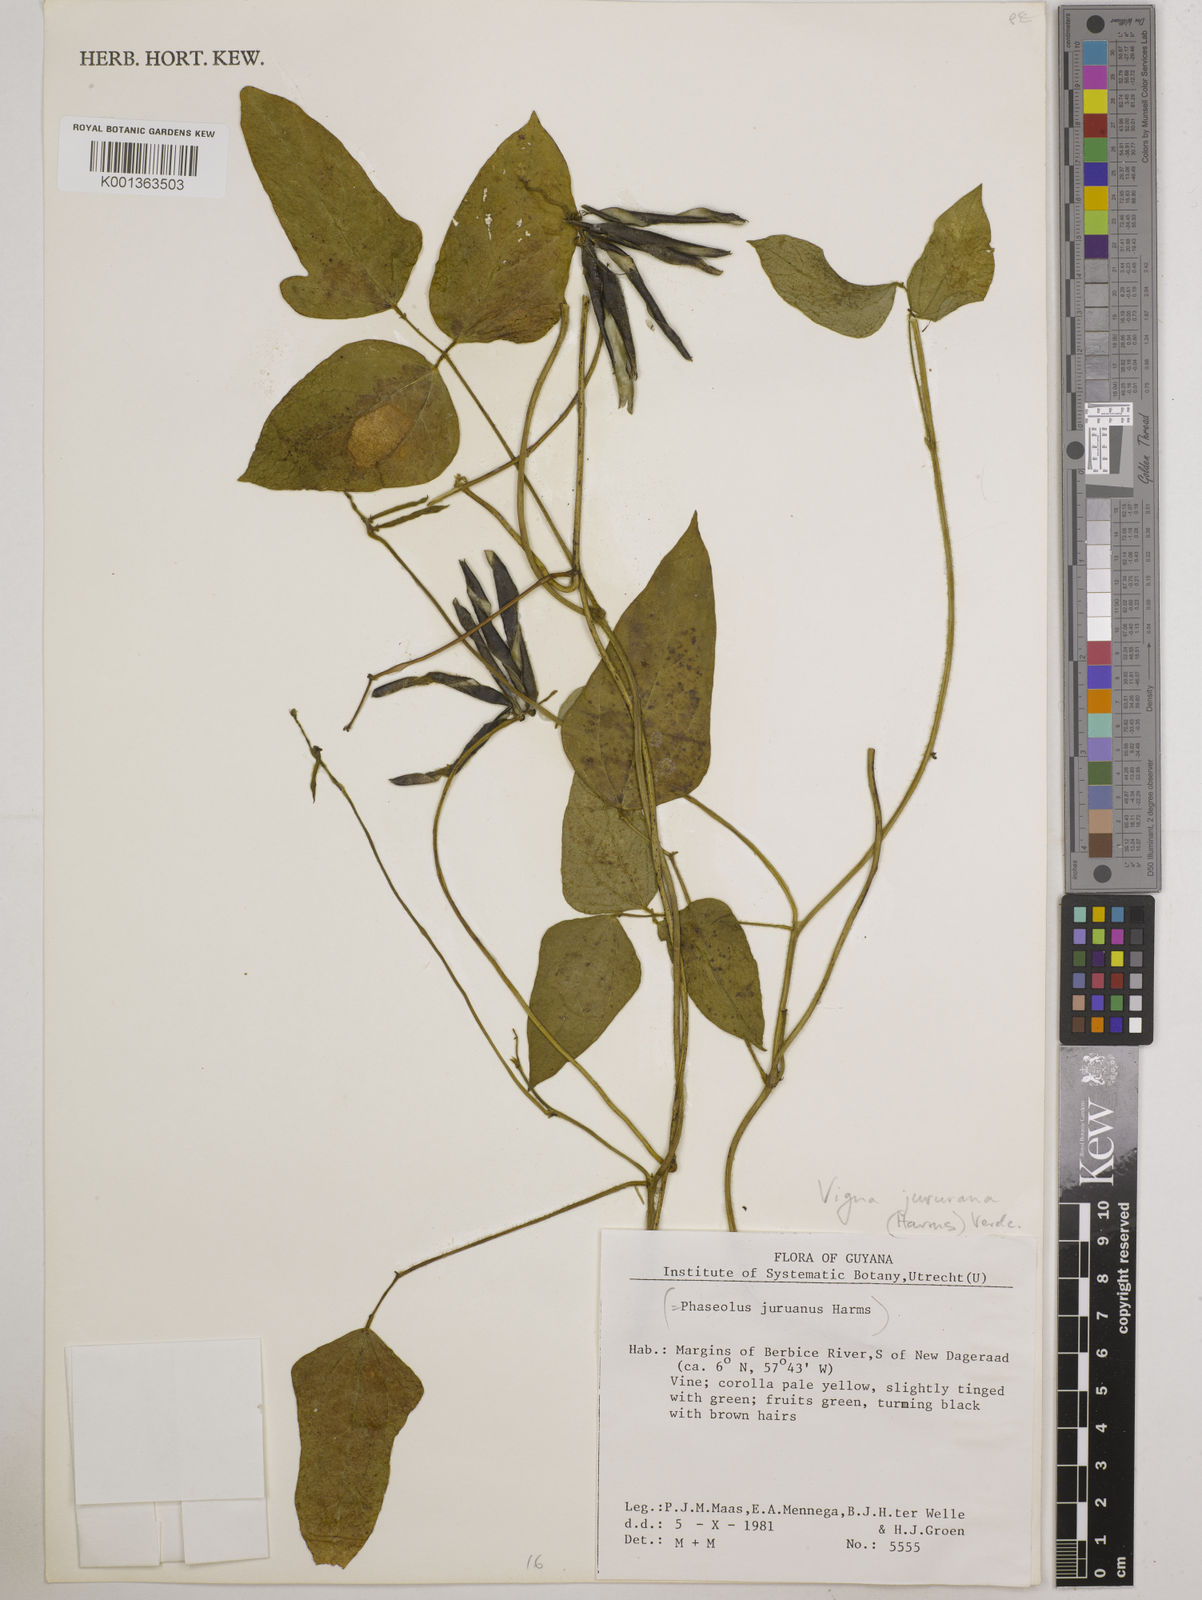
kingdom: Plantae
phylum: Tracheophyta
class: Magnoliopsida
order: Fabales
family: Fabaceae
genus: Vigna
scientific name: Vigna juruana
